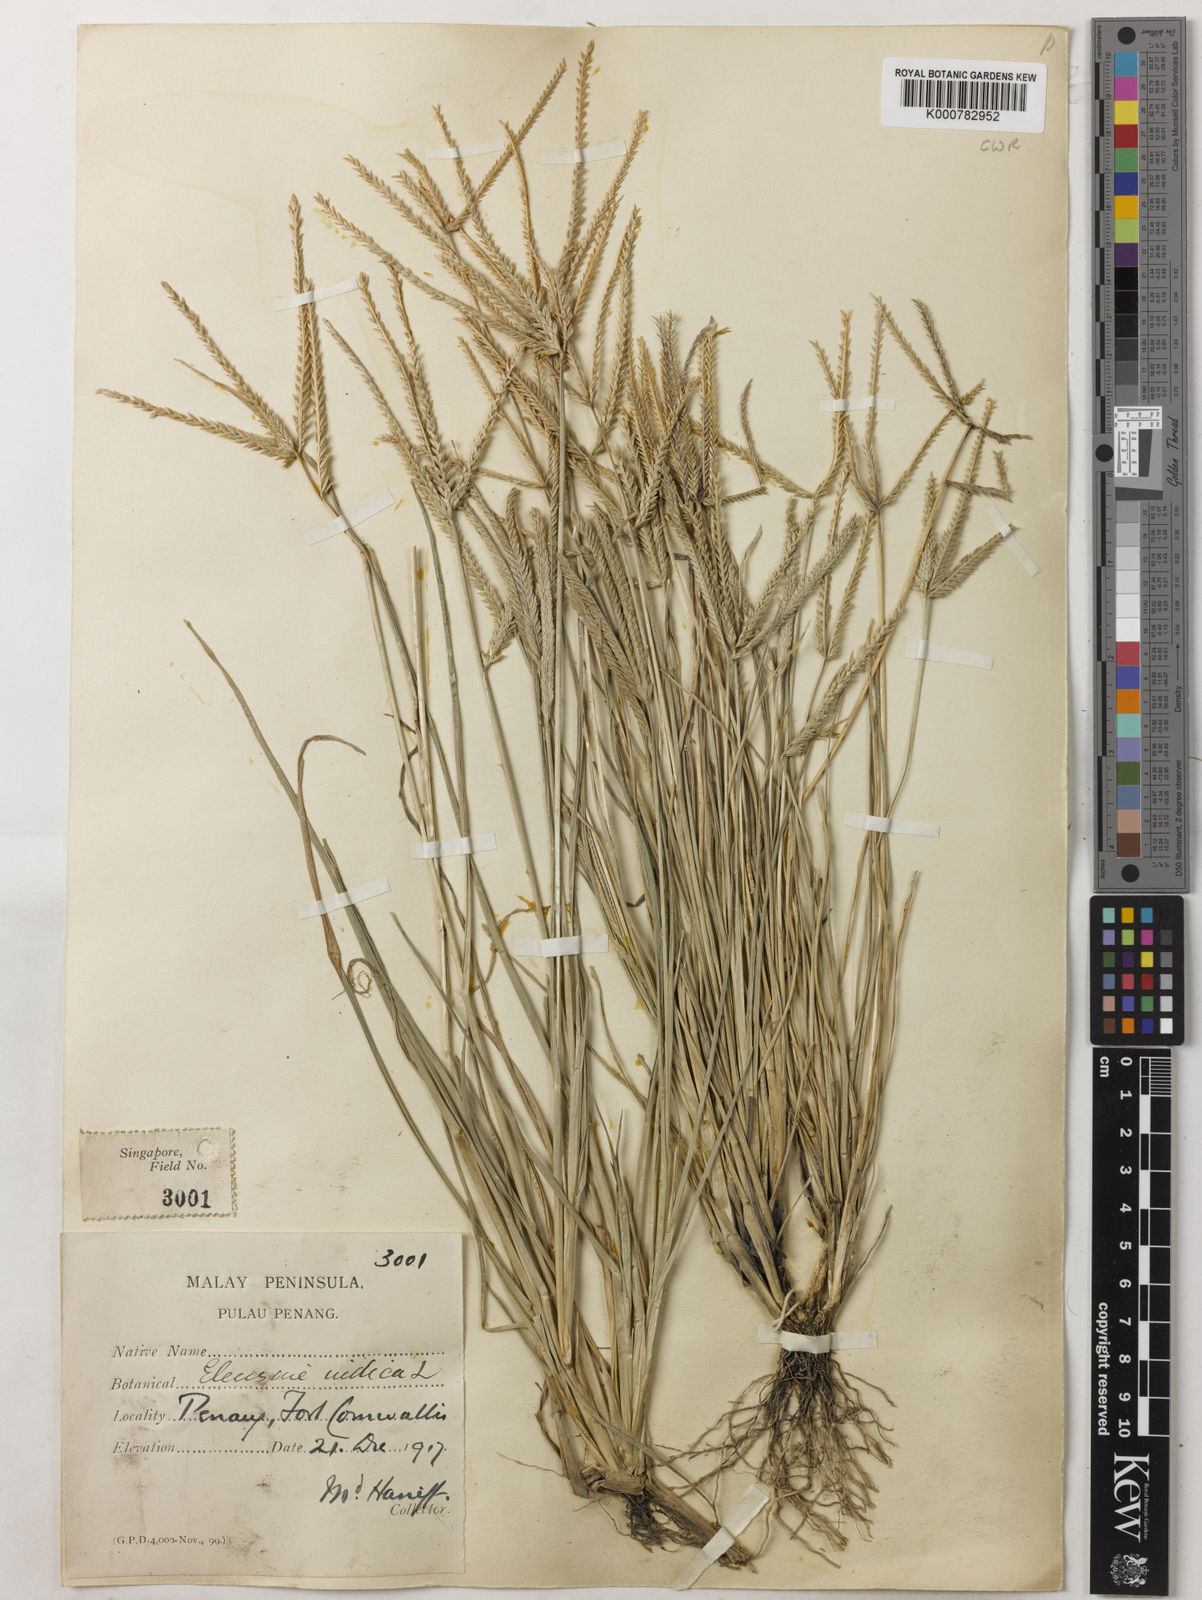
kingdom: Plantae
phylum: Tracheophyta
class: Liliopsida
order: Poales
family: Poaceae
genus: Eleusine
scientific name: Eleusine indica
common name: Yard-grass
